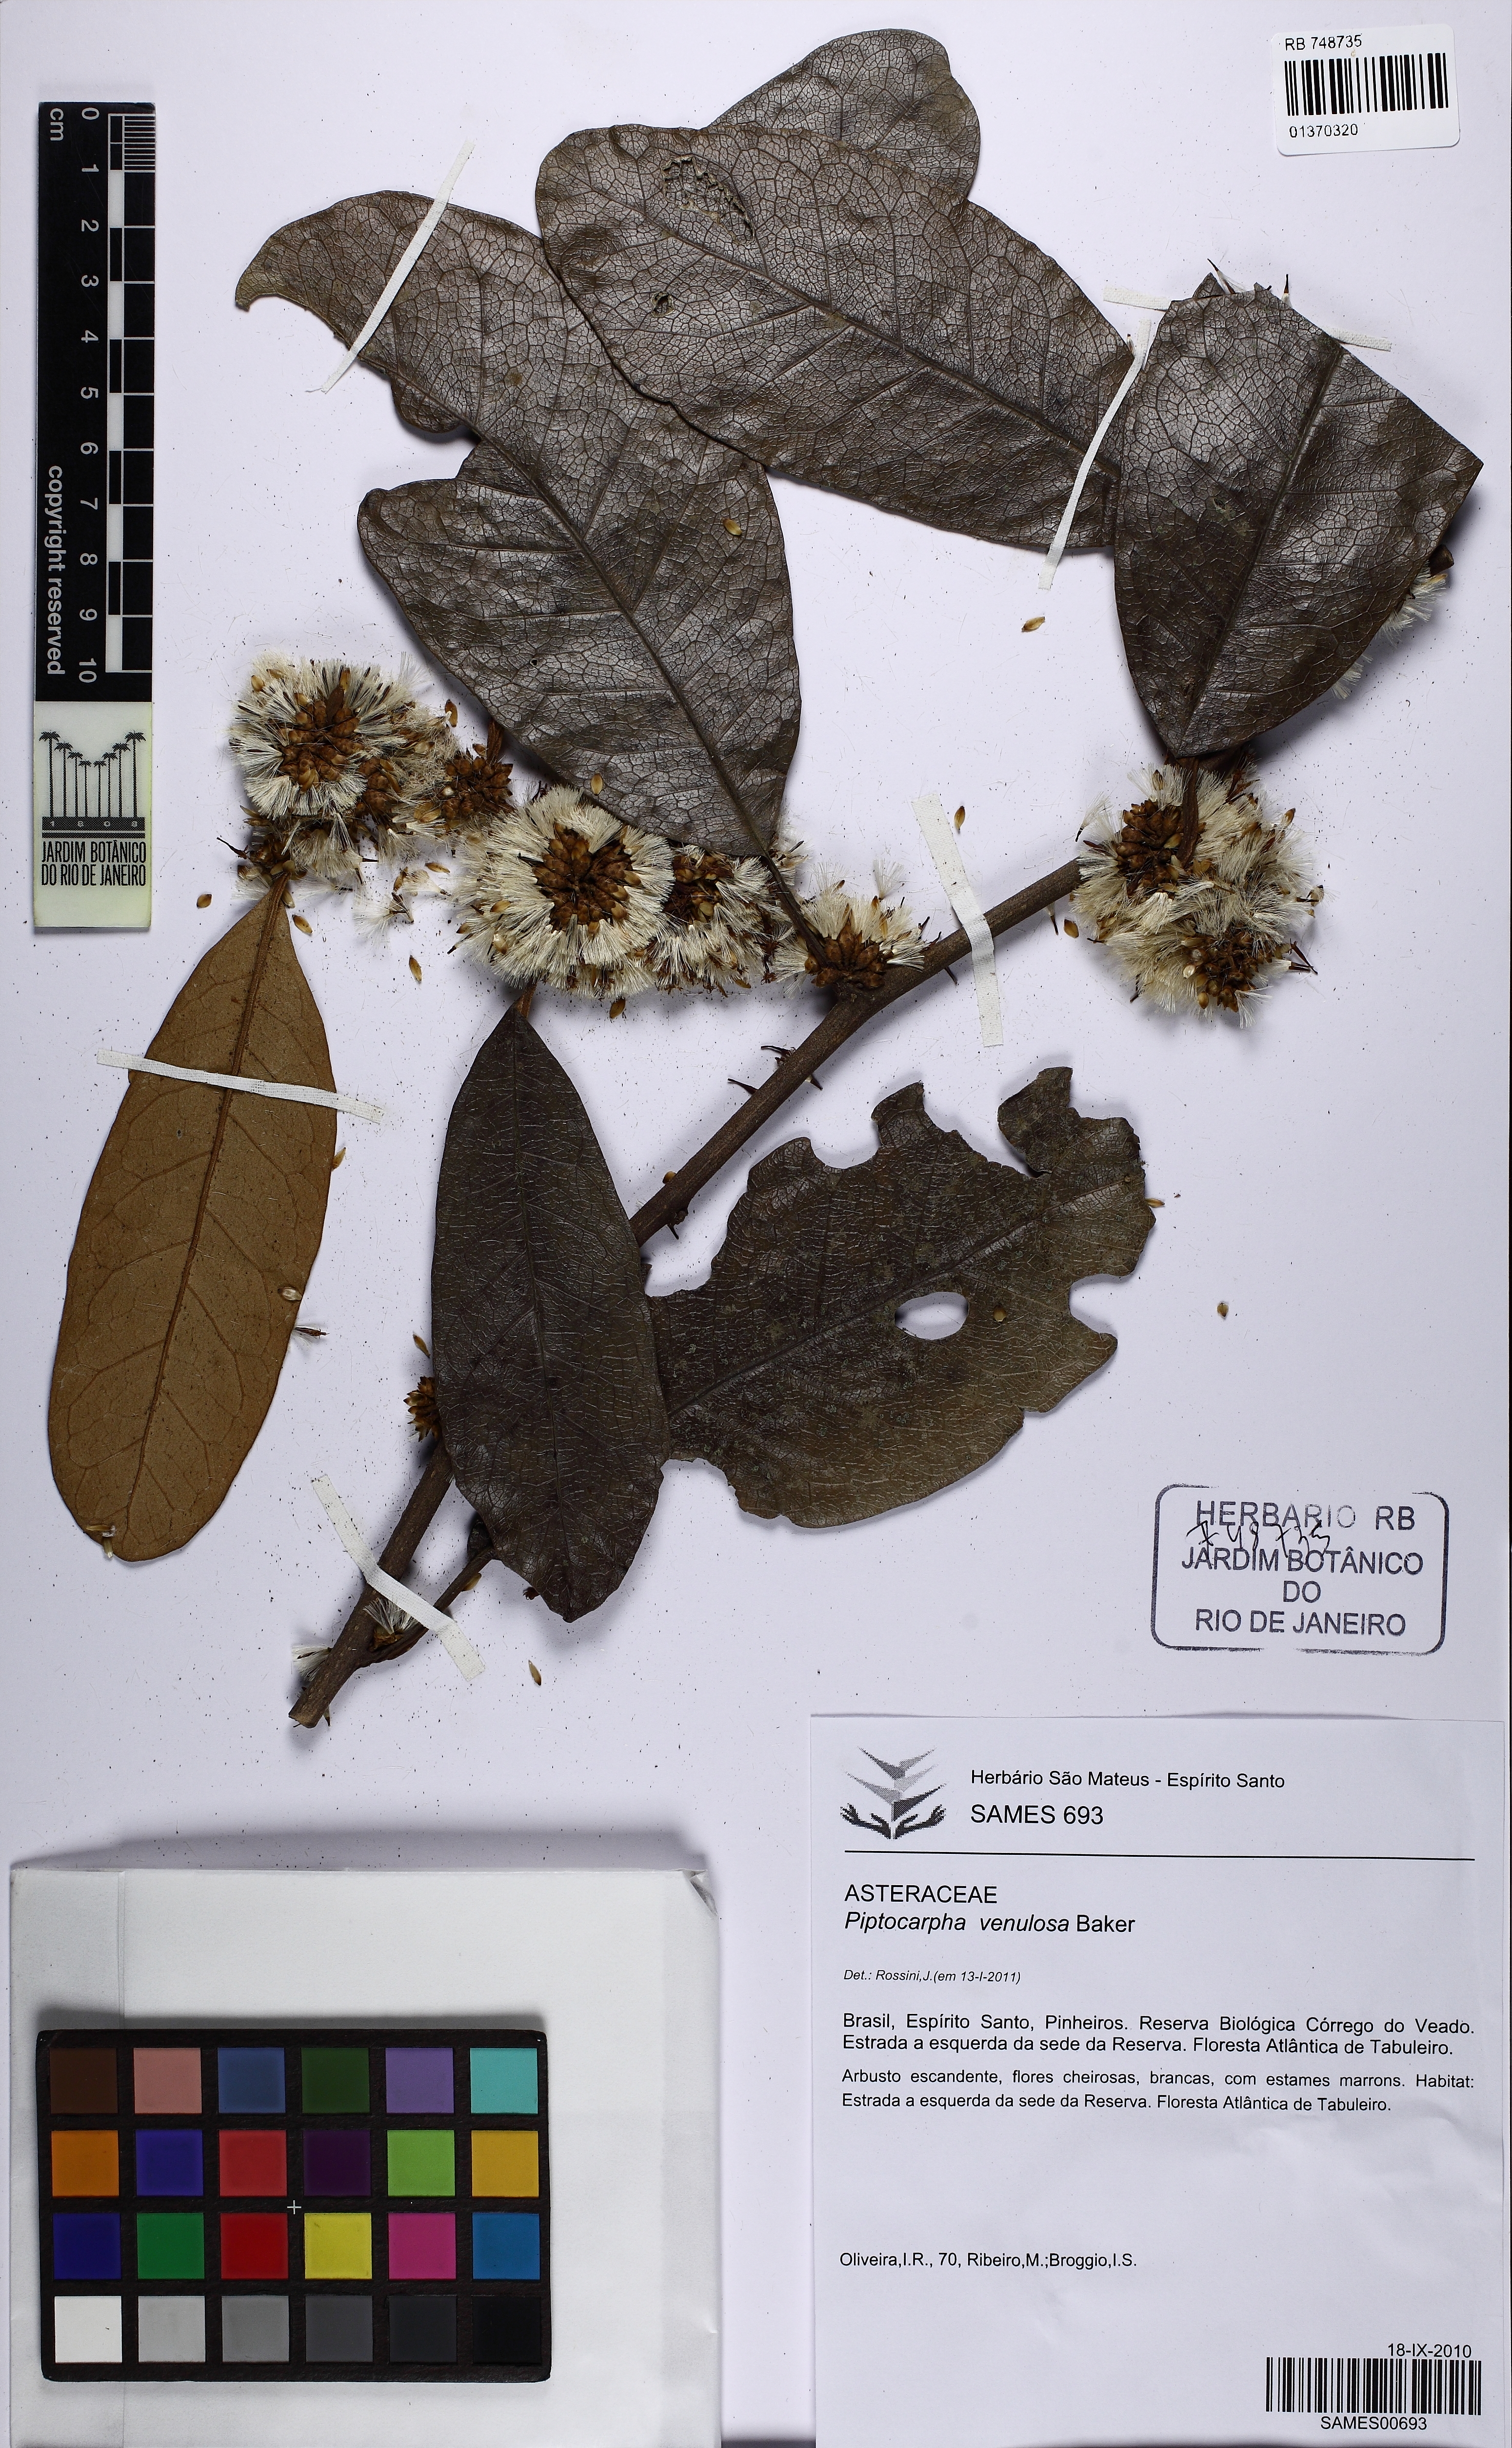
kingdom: Plantae
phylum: Tracheophyta
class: Magnoliopsida
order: Asterales
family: Asteraceae
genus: Piptocarpha
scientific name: Piptocarpha lundiana
